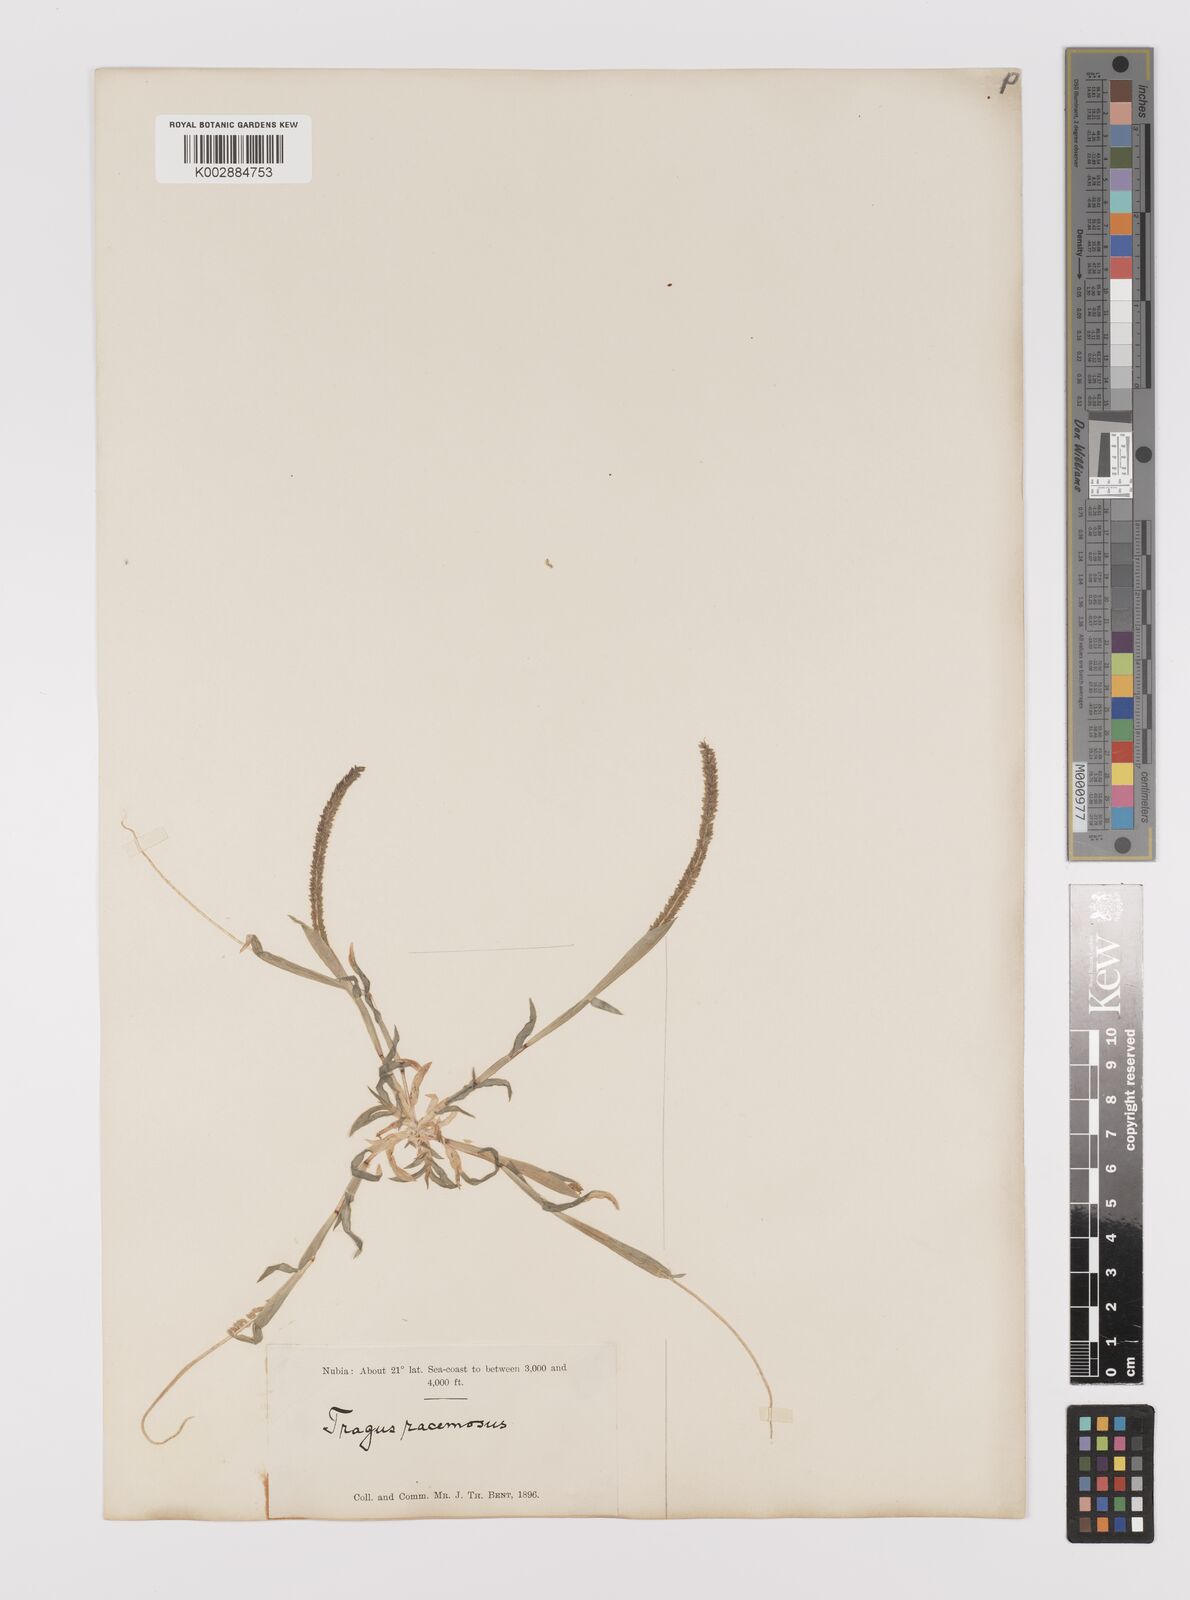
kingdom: Plantae
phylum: Tracheophyta
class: Liliopsida
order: Poales
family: Poaceae
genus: Tragus
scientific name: Tragus berteronianus
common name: African bur-grass
